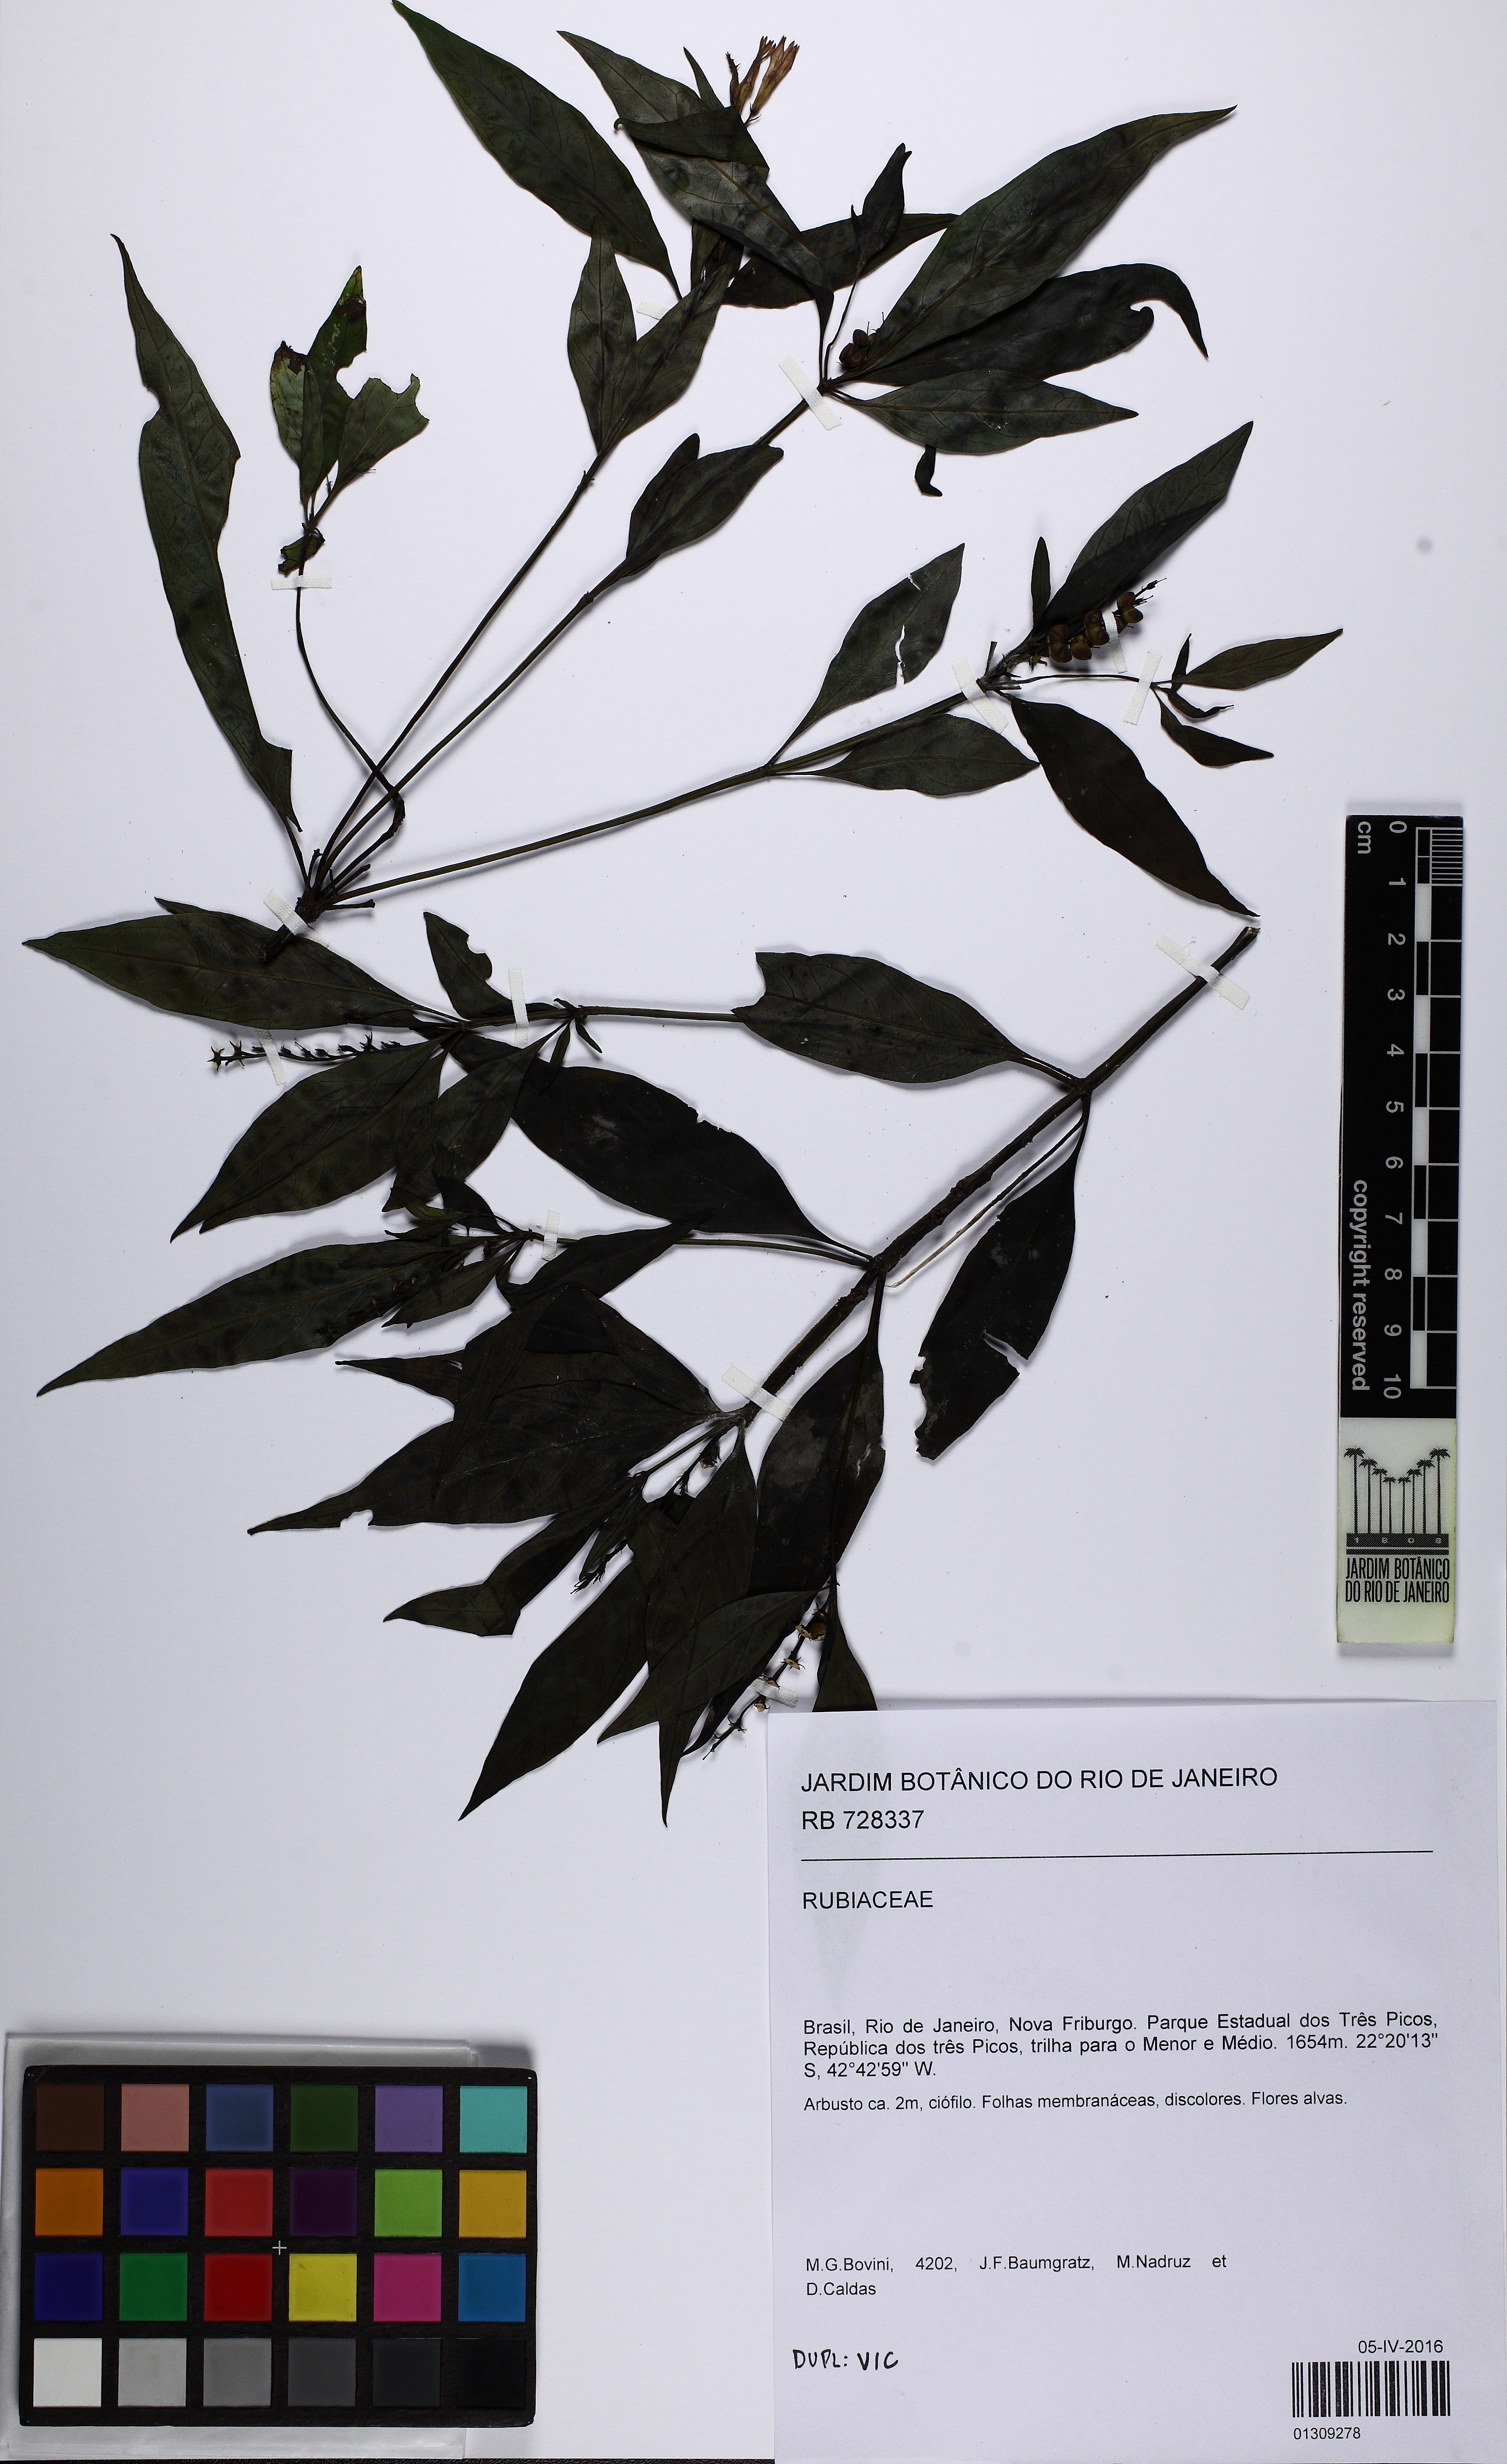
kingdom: Plantae
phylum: Tracheophyta
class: Magnoliopsida
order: Gentianales
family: Loganiaceae
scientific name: Loganiaceae
